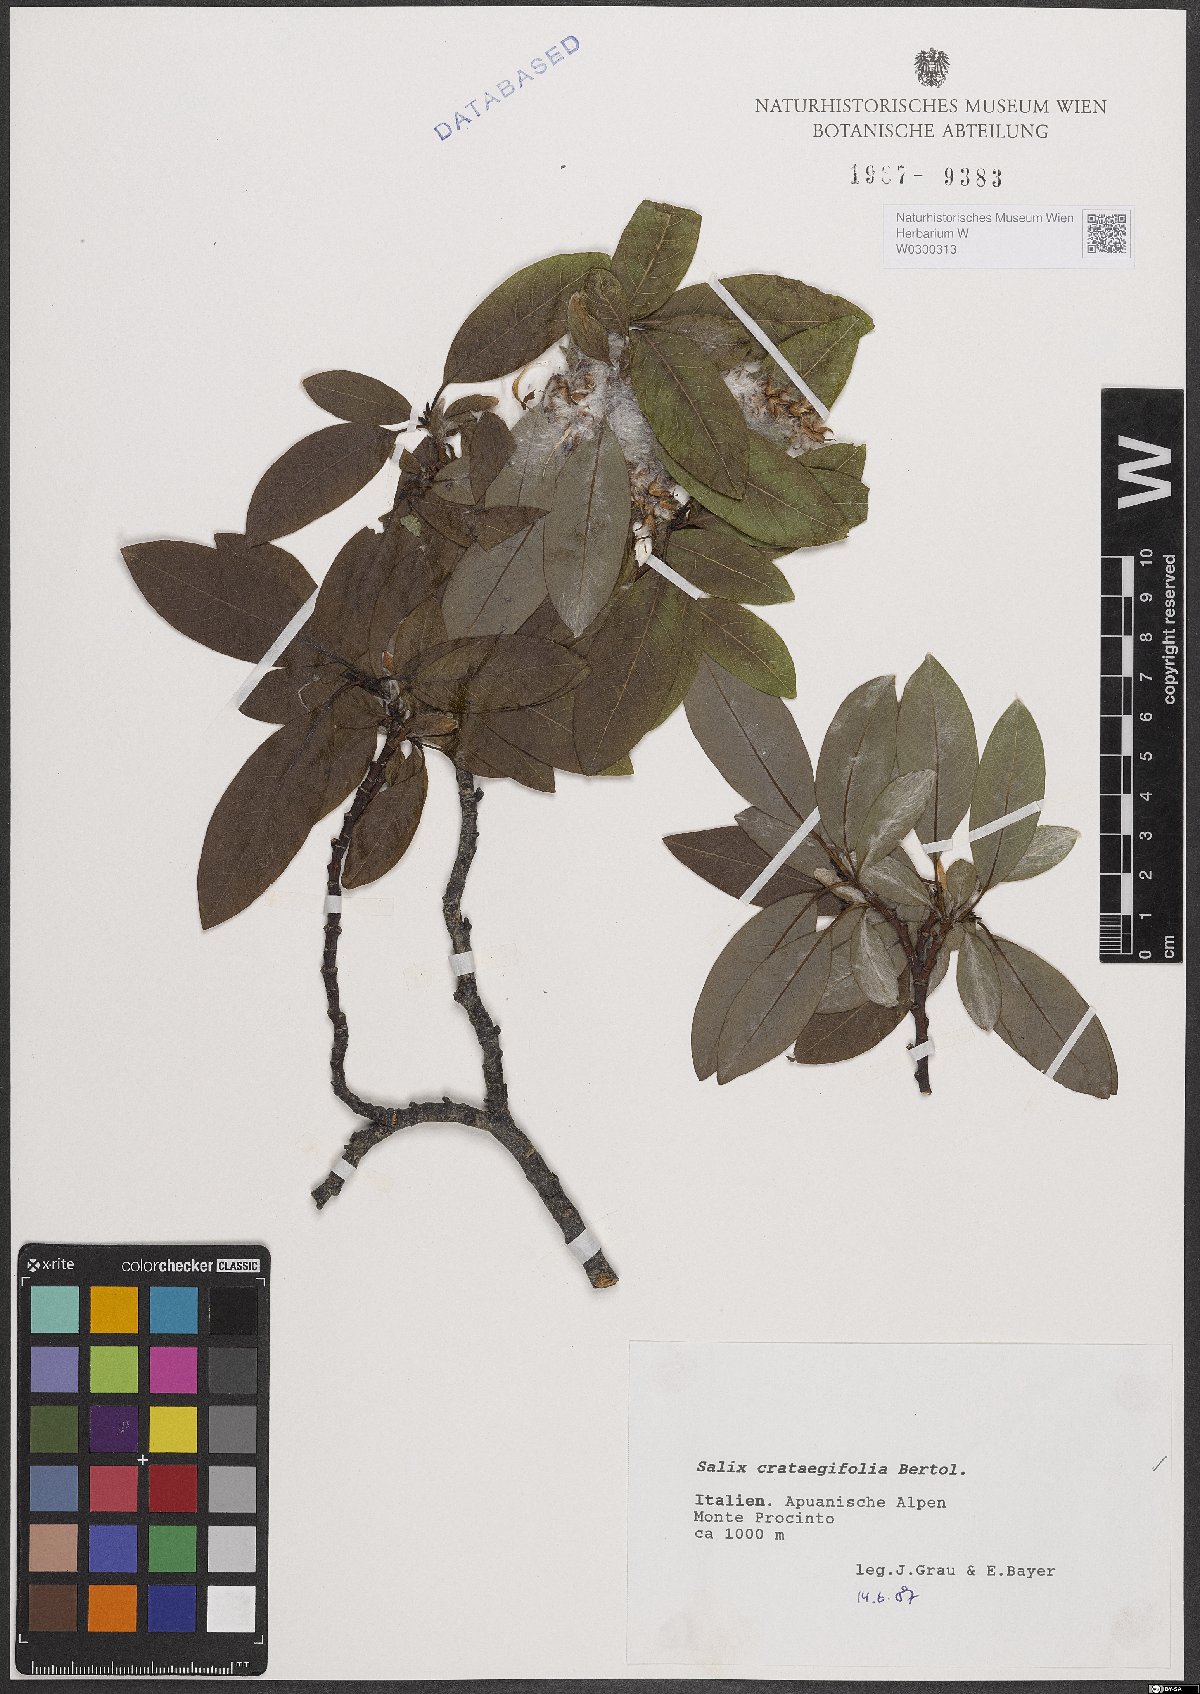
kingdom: Plantae
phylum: Tracheophyta
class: Magnoliopsida
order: Malpighiales
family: Salicaceae
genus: Salix
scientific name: Salix crataegifolia
